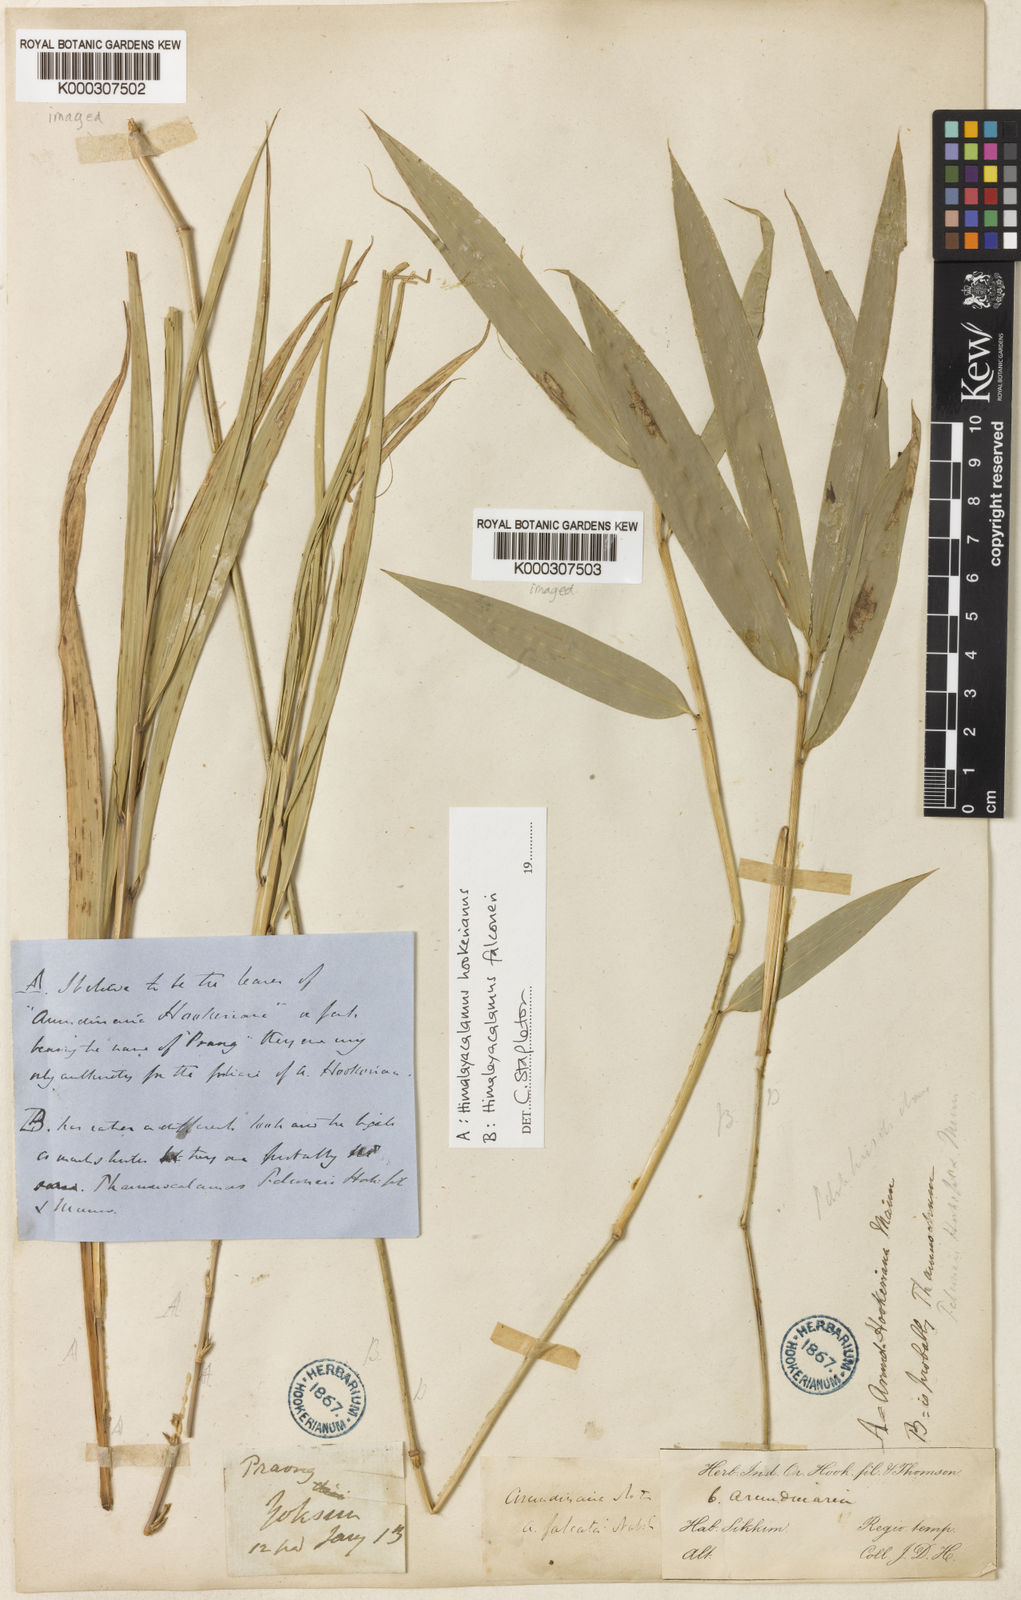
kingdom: Plantae
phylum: Tracheophyta
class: Liliopsida
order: Poales
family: Poaceae
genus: Himalayacalamus
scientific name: Himalayacalamus hookerianus
